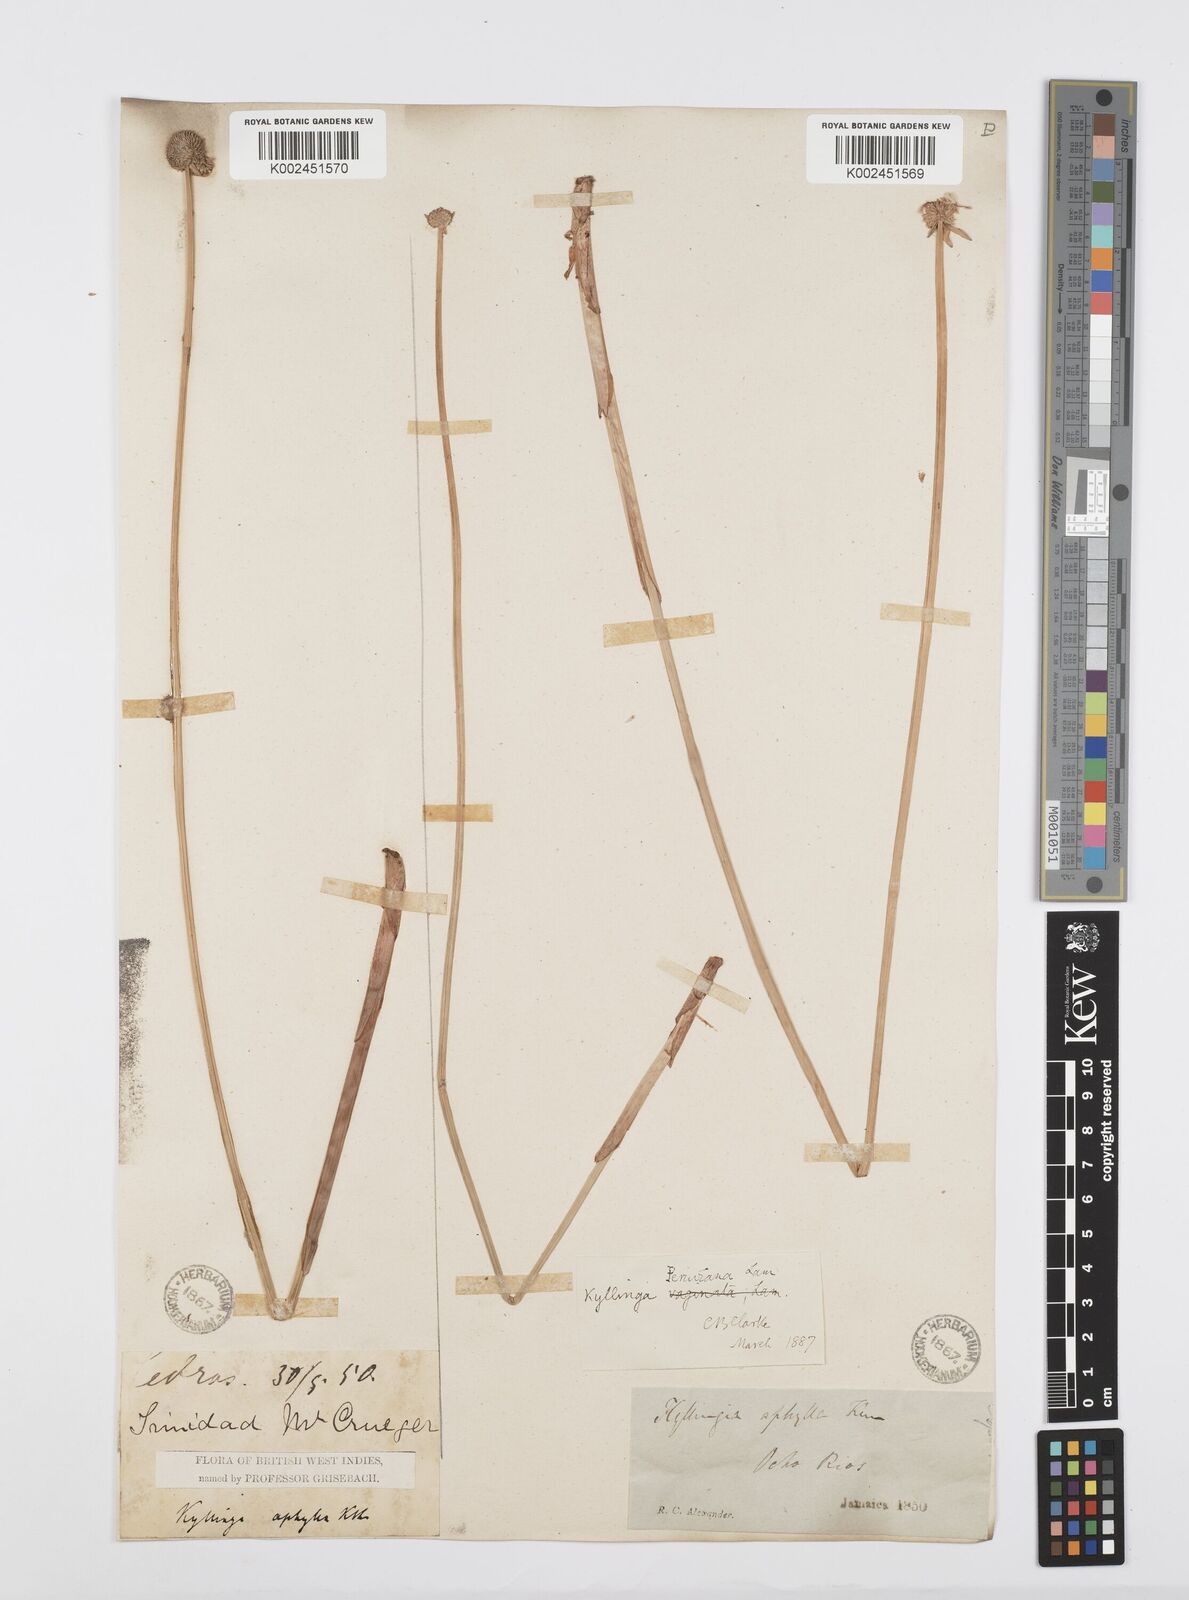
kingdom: Plantae
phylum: Tracheophyta
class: Liliopsida
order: Poales
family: Cyperaceae
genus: Cyperus
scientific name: Cyperus obtusatus
